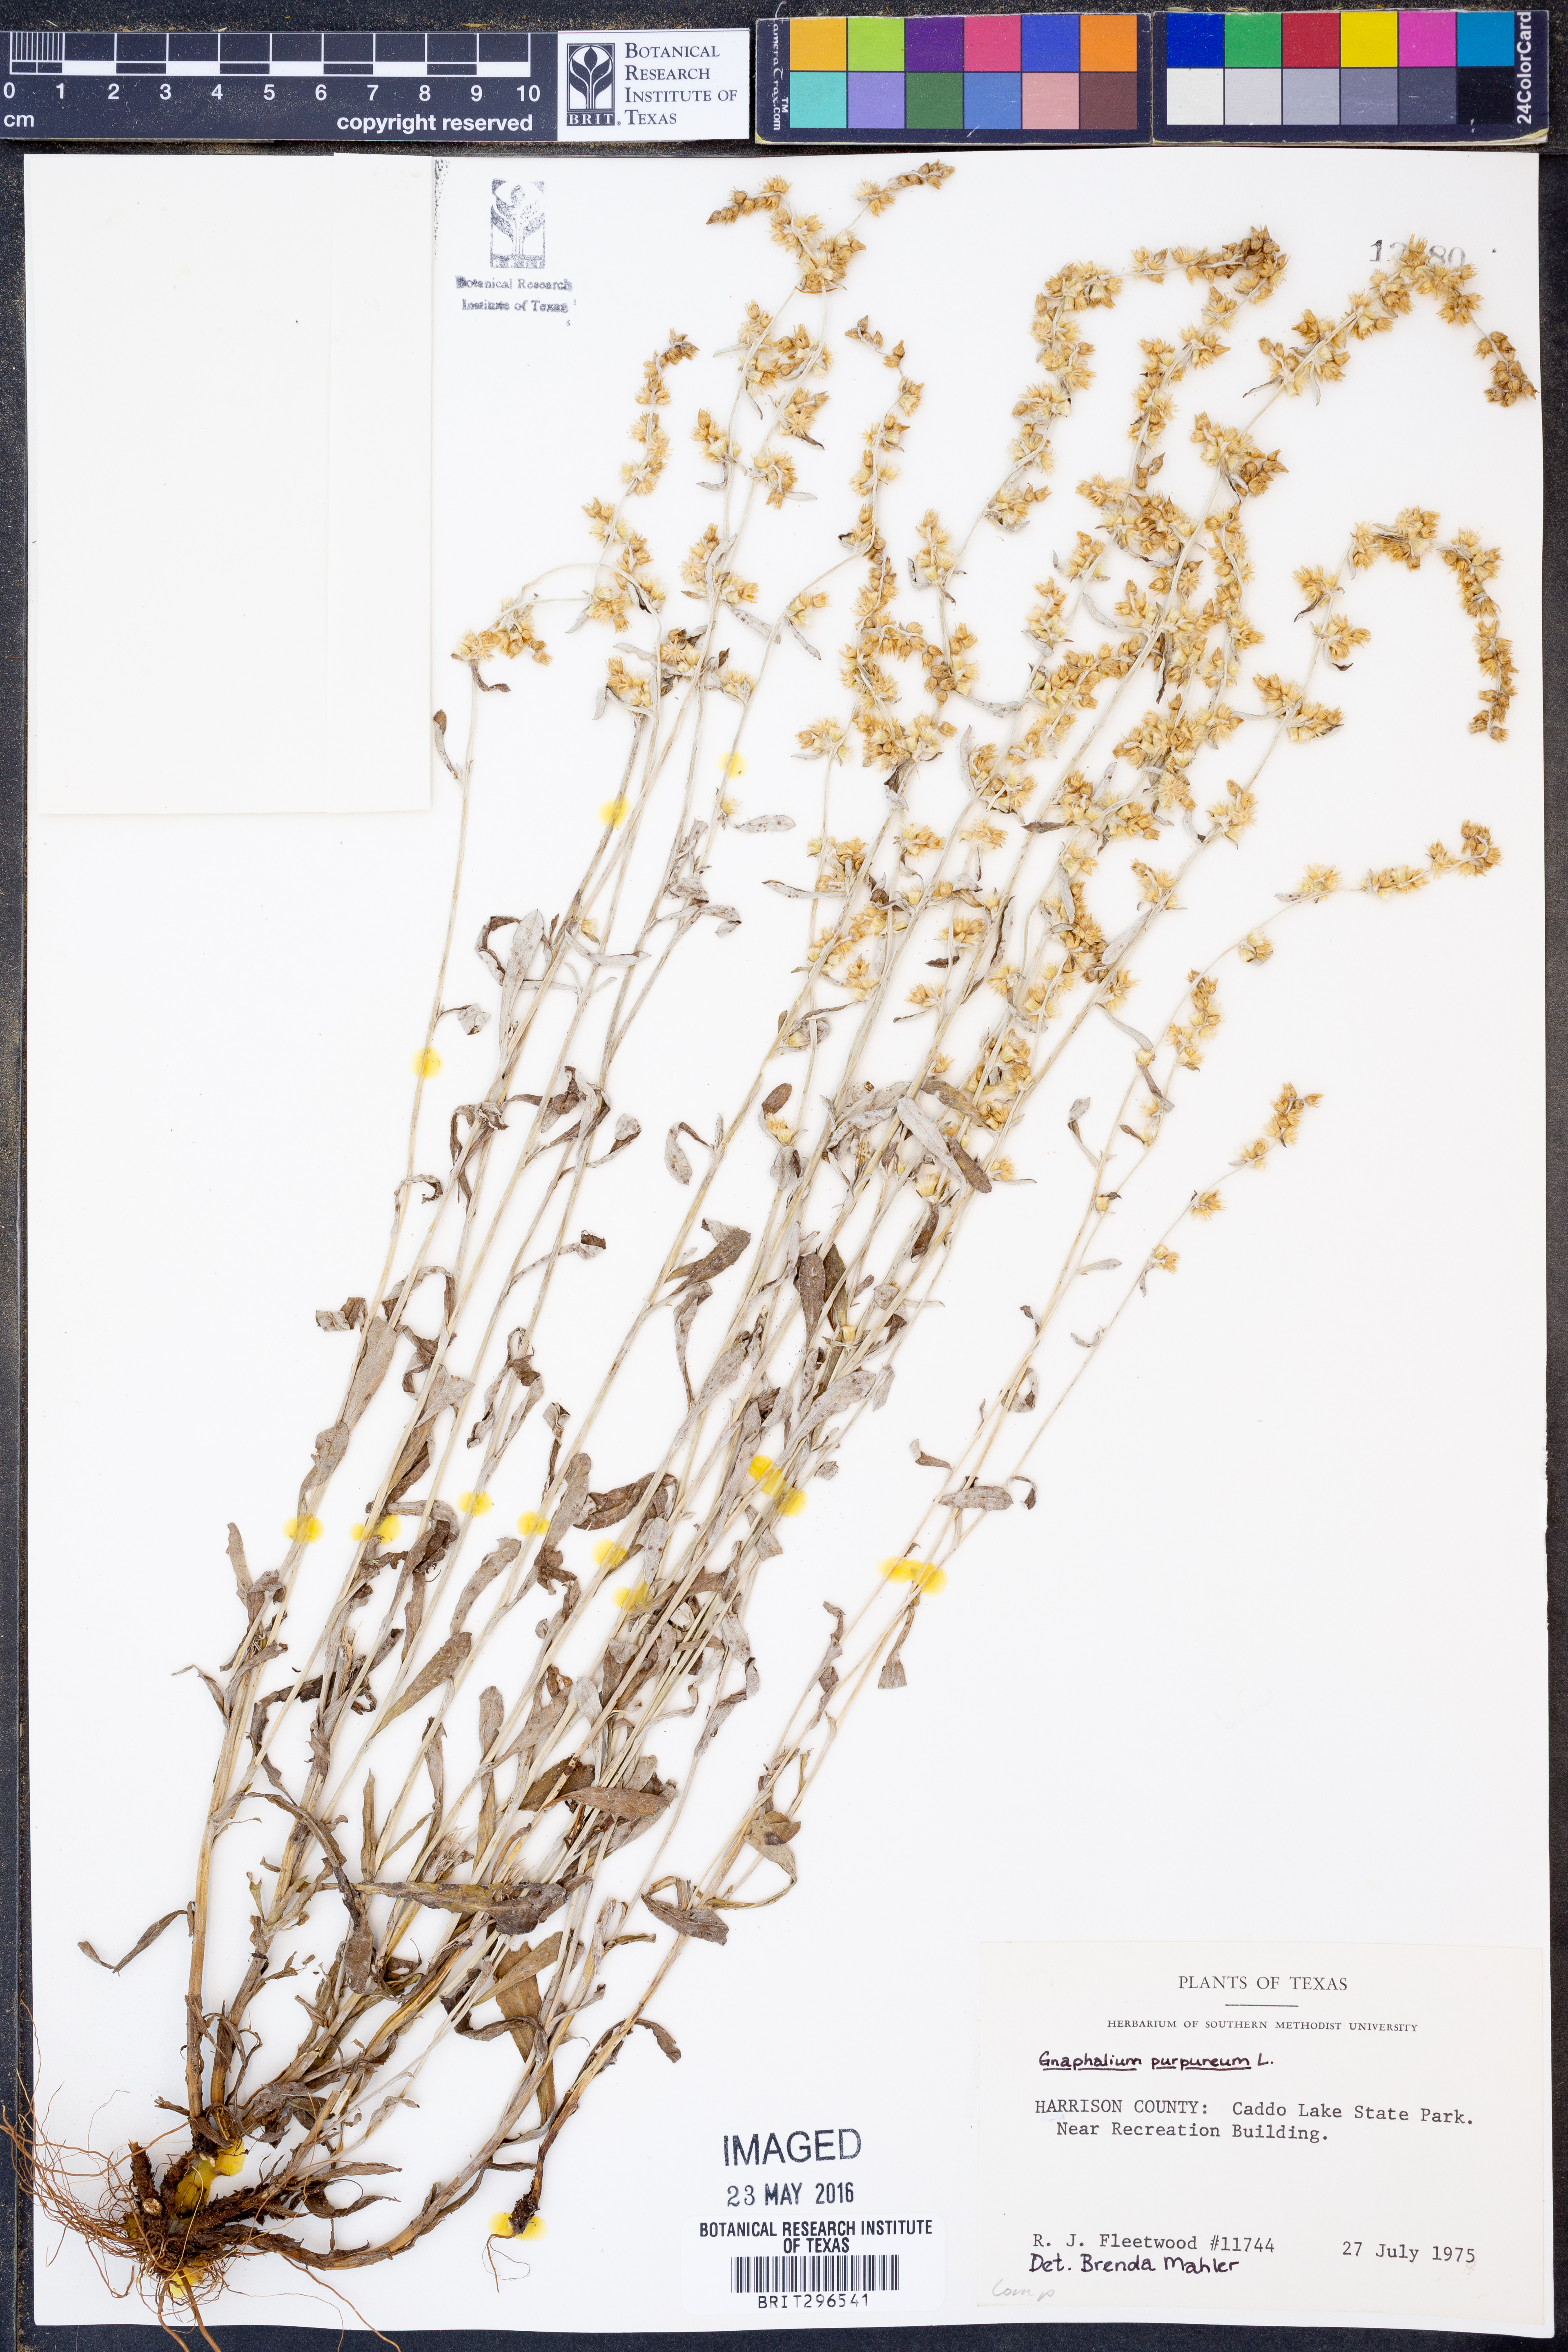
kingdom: Plantae
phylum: Tracheophyta
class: Magnoliopsida
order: Asterales
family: Asteraceae
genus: Gamochaeta
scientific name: Gamochaeta purpurea
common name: Purple cudweed
